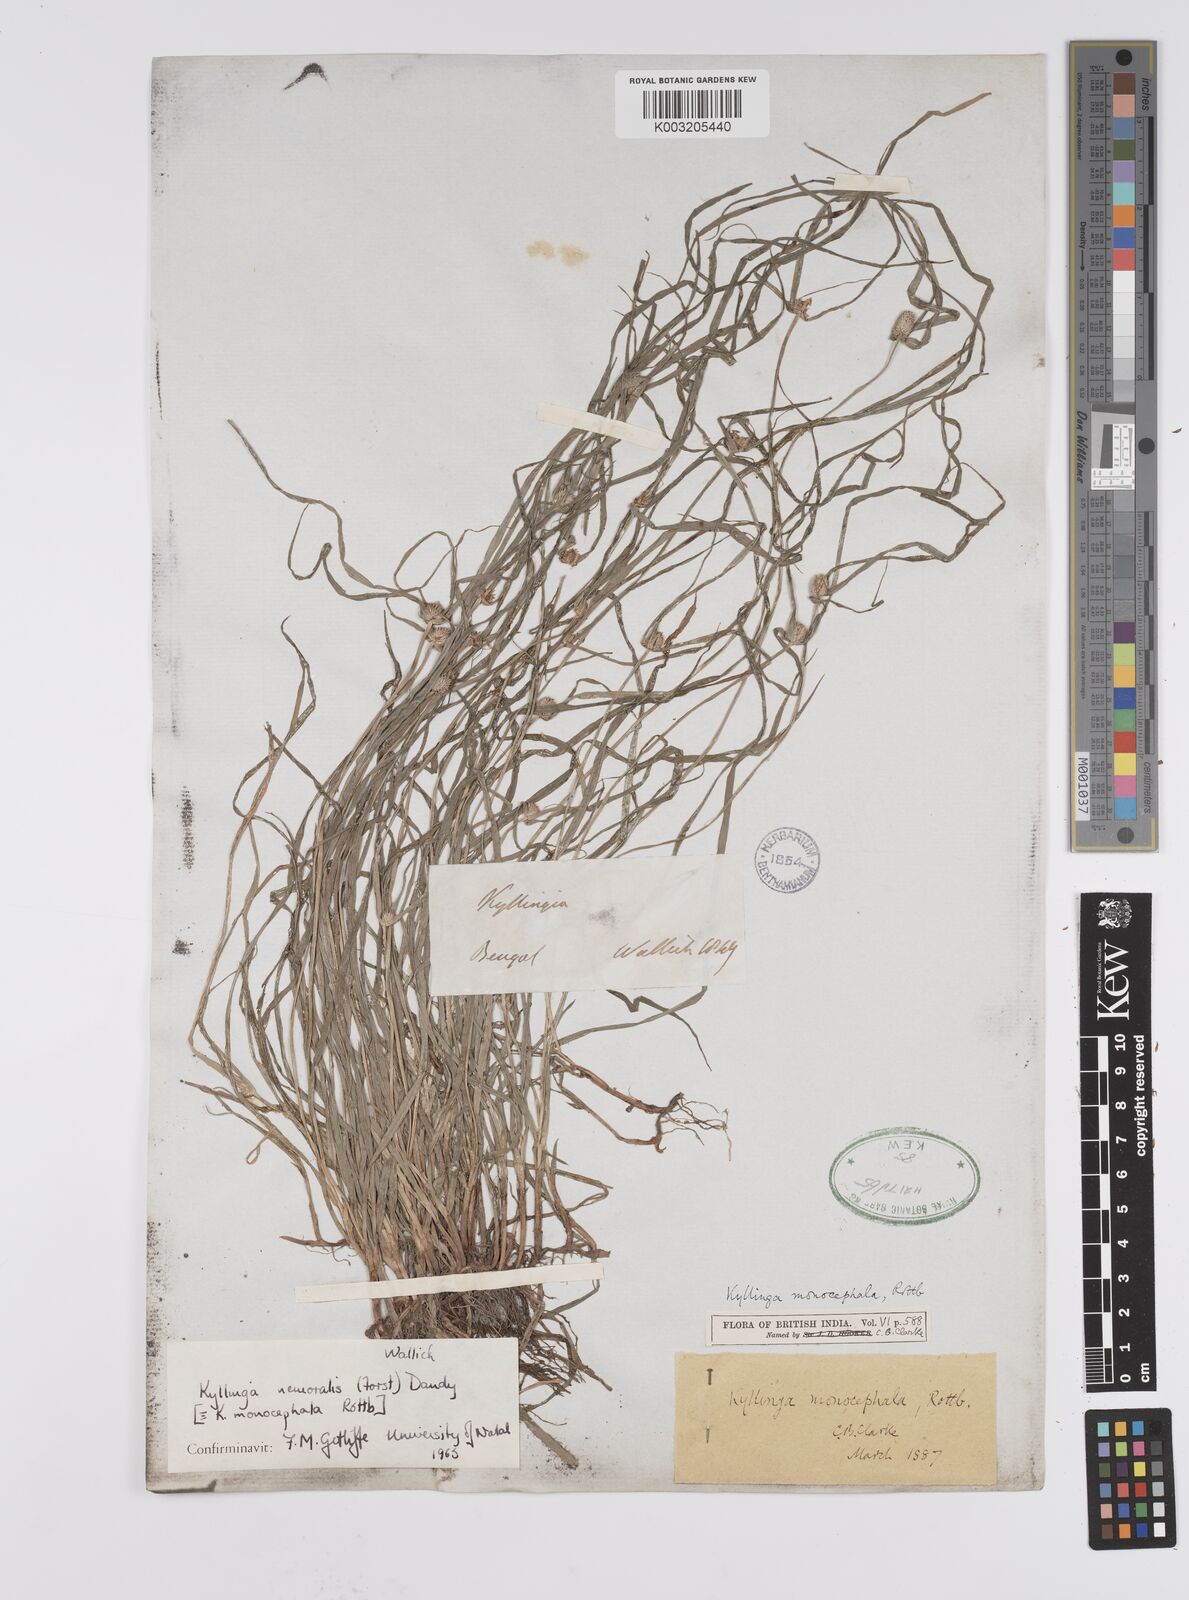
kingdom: Plantae
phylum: Tracheophyta
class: Liliopsida
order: Poales
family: Cyperaceae
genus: Cyperus
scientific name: Cyperus nemoralis
